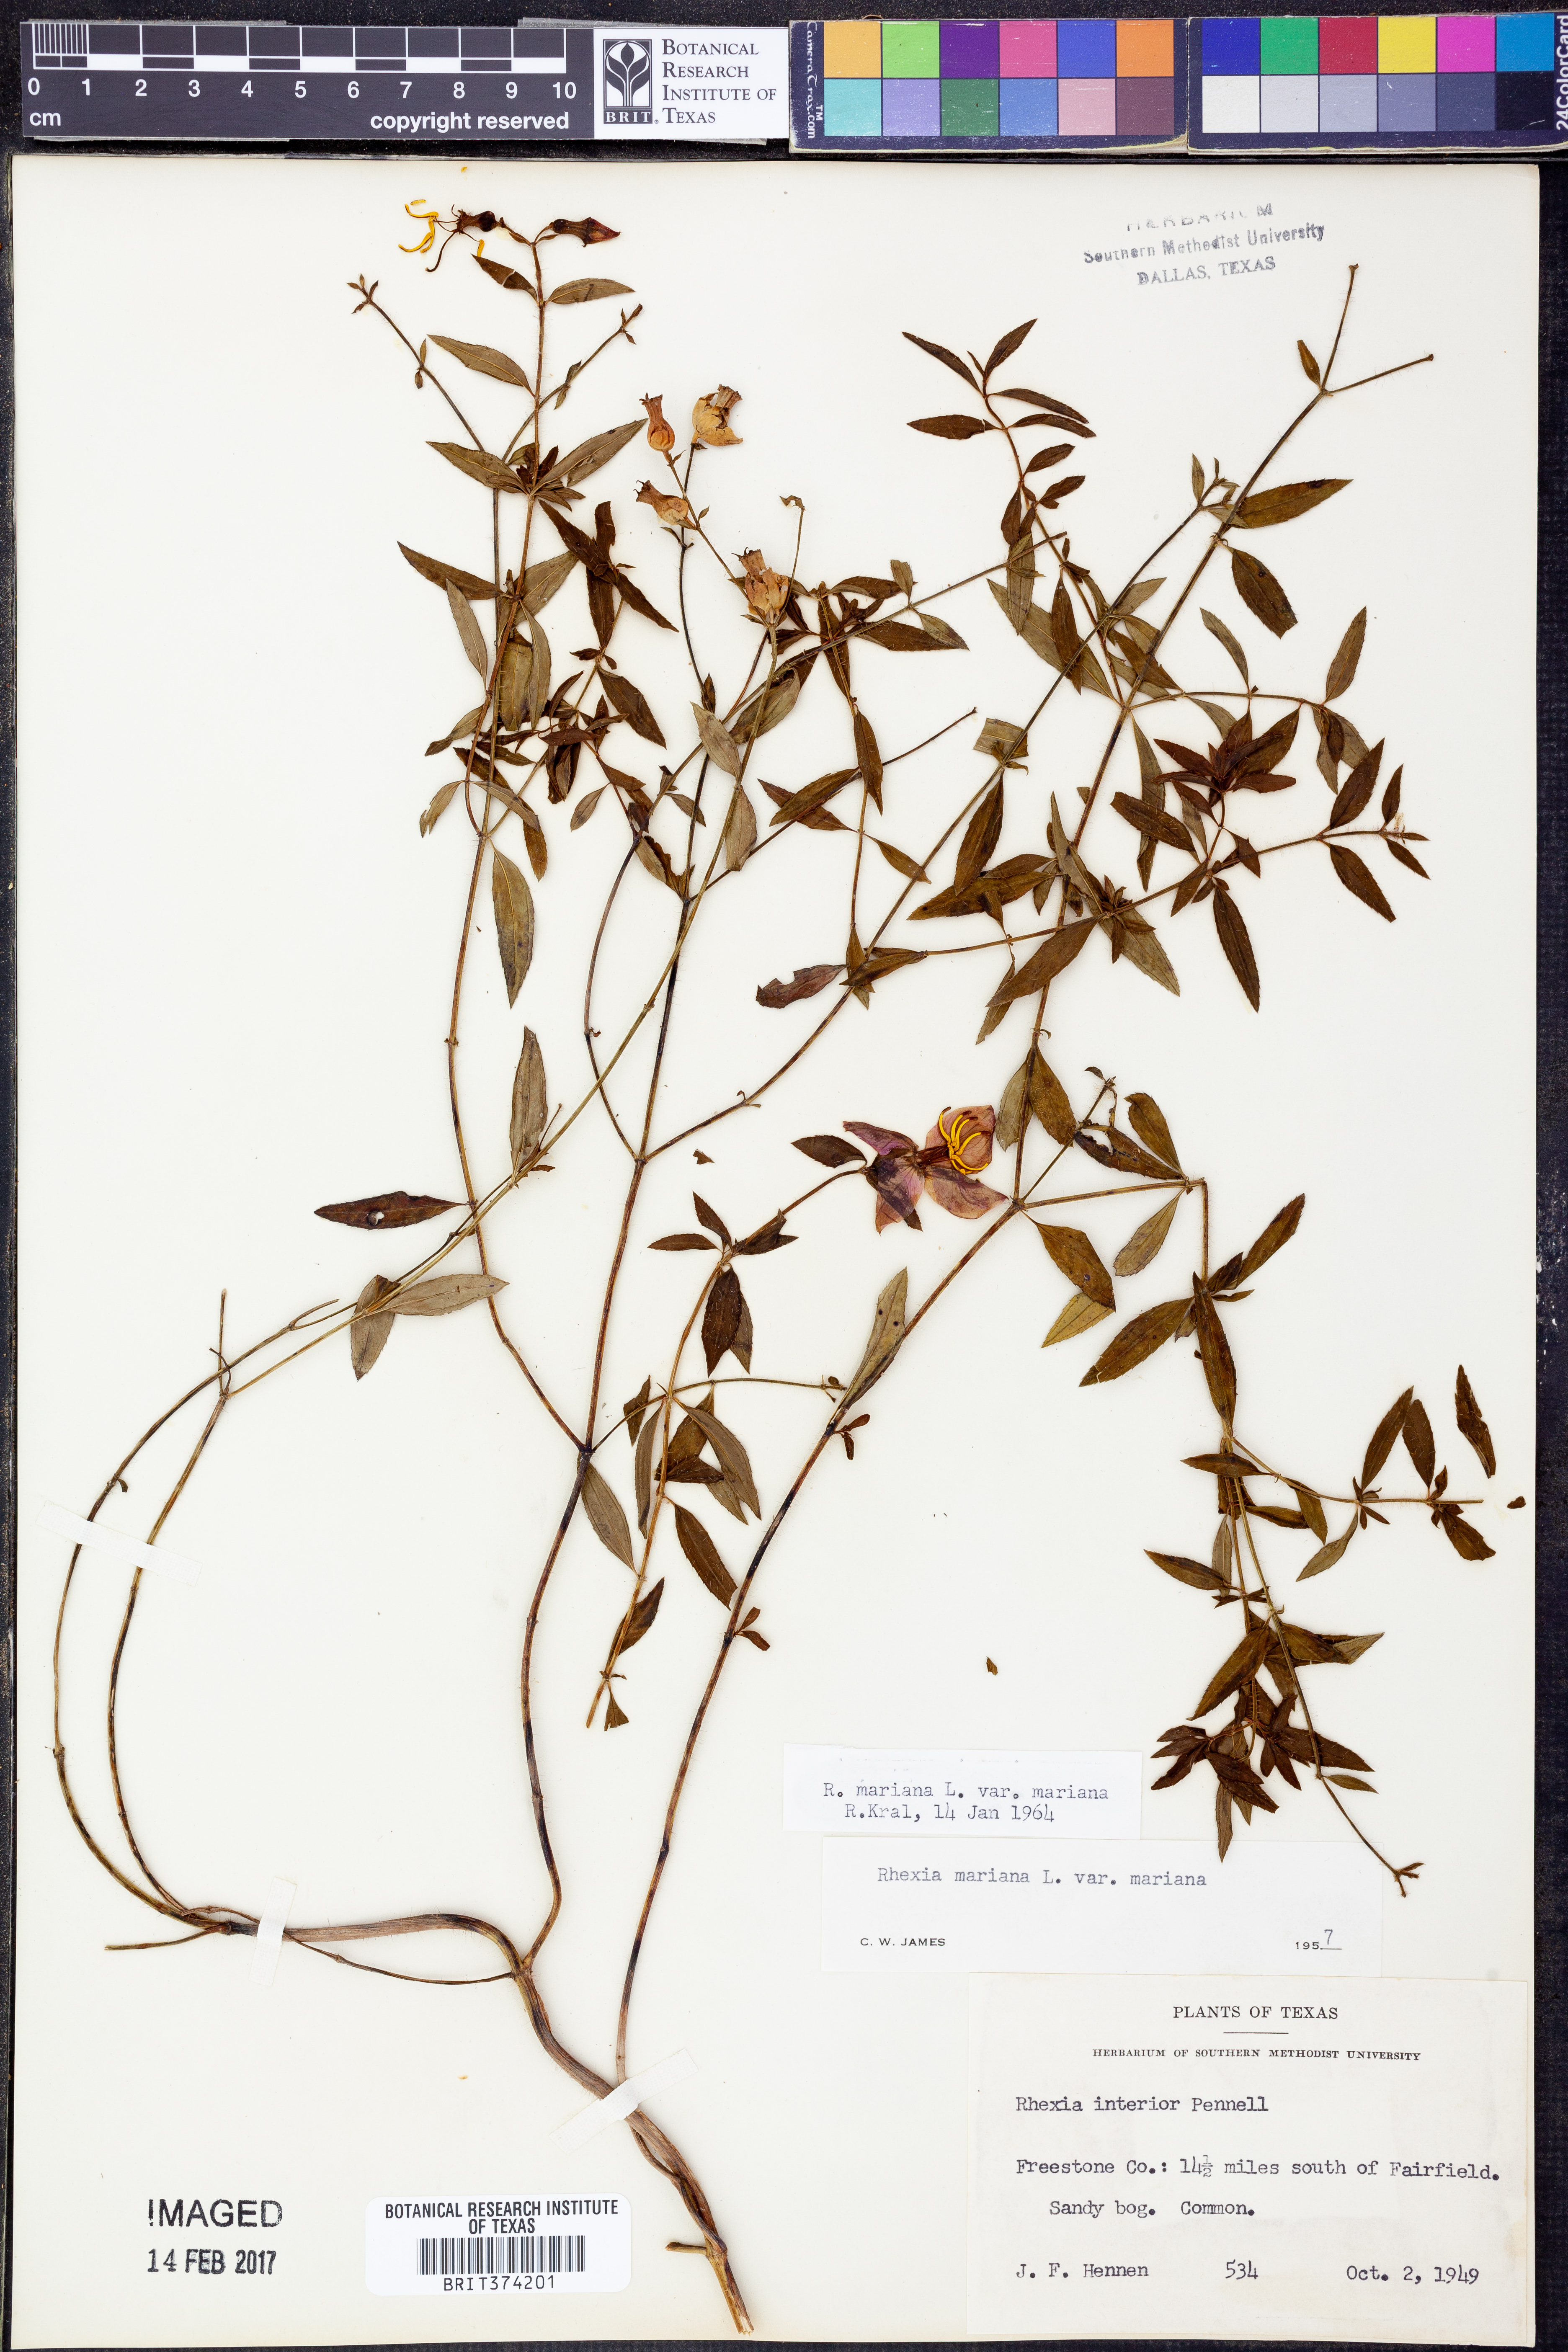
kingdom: Plantae
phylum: Tracheophyta
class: Magnoliopsida
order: Myrtales
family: Melastomataceae
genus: Rhexia
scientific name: Rhexia mariana
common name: Dull meadow-pitcher
